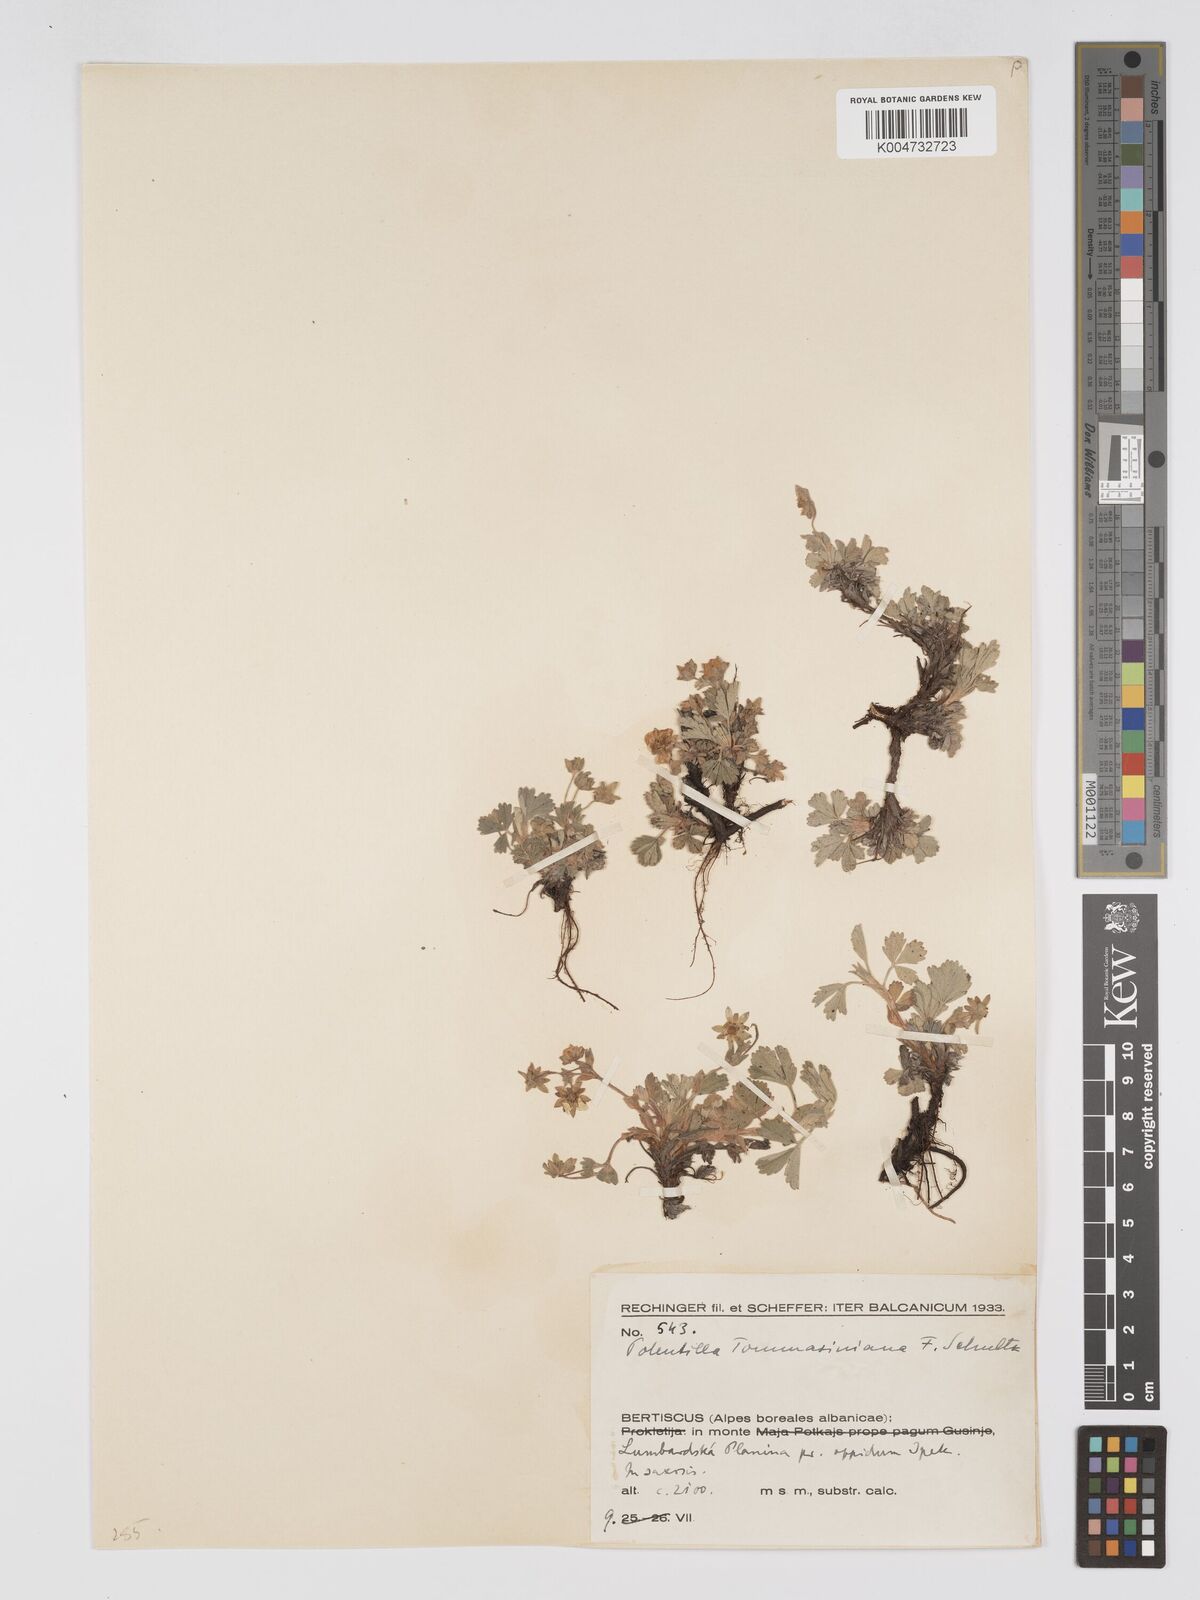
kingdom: Plantae
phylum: Tracheophyta
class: Magnoliopsida
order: Rosales
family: Rosaceae
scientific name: Rosaceae
